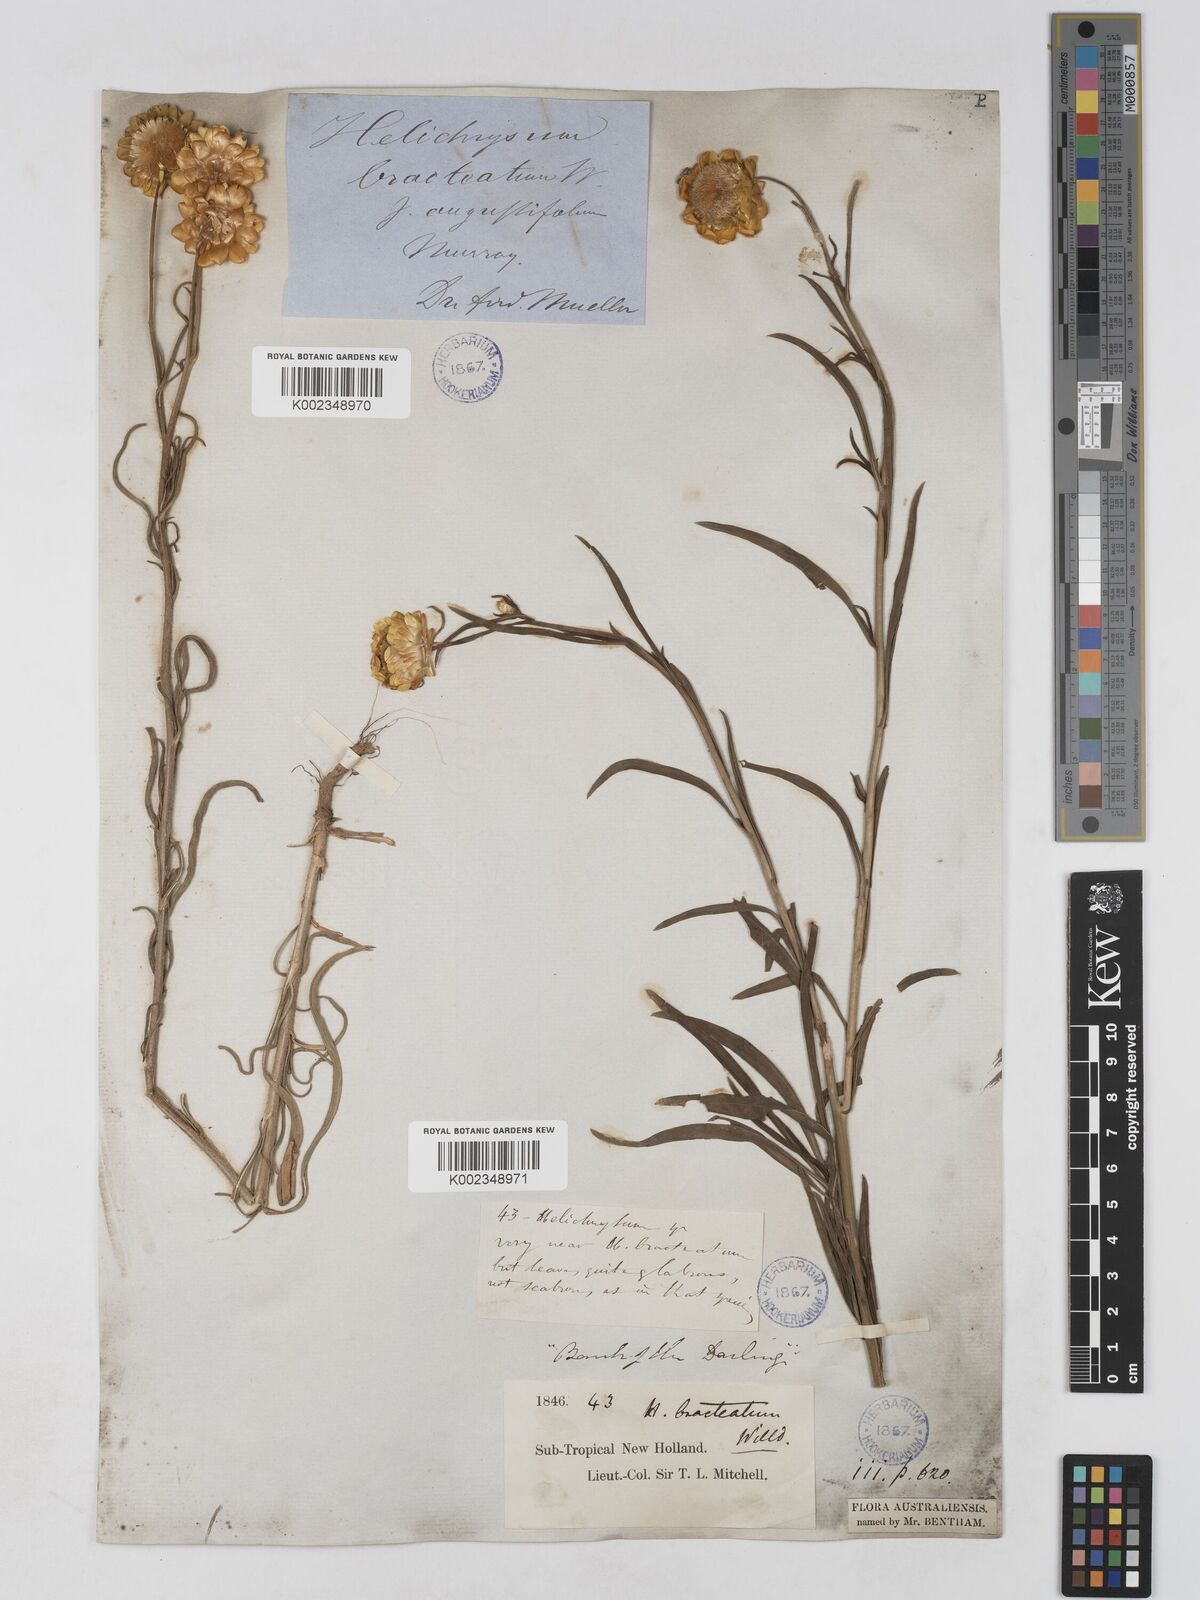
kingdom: Plantae
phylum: Tracheophyta
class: Magnoliopsida
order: Asterales
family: Asteraceae
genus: Xerochrysum
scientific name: Xerochrysum bracteatum
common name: Bracted strawflower
